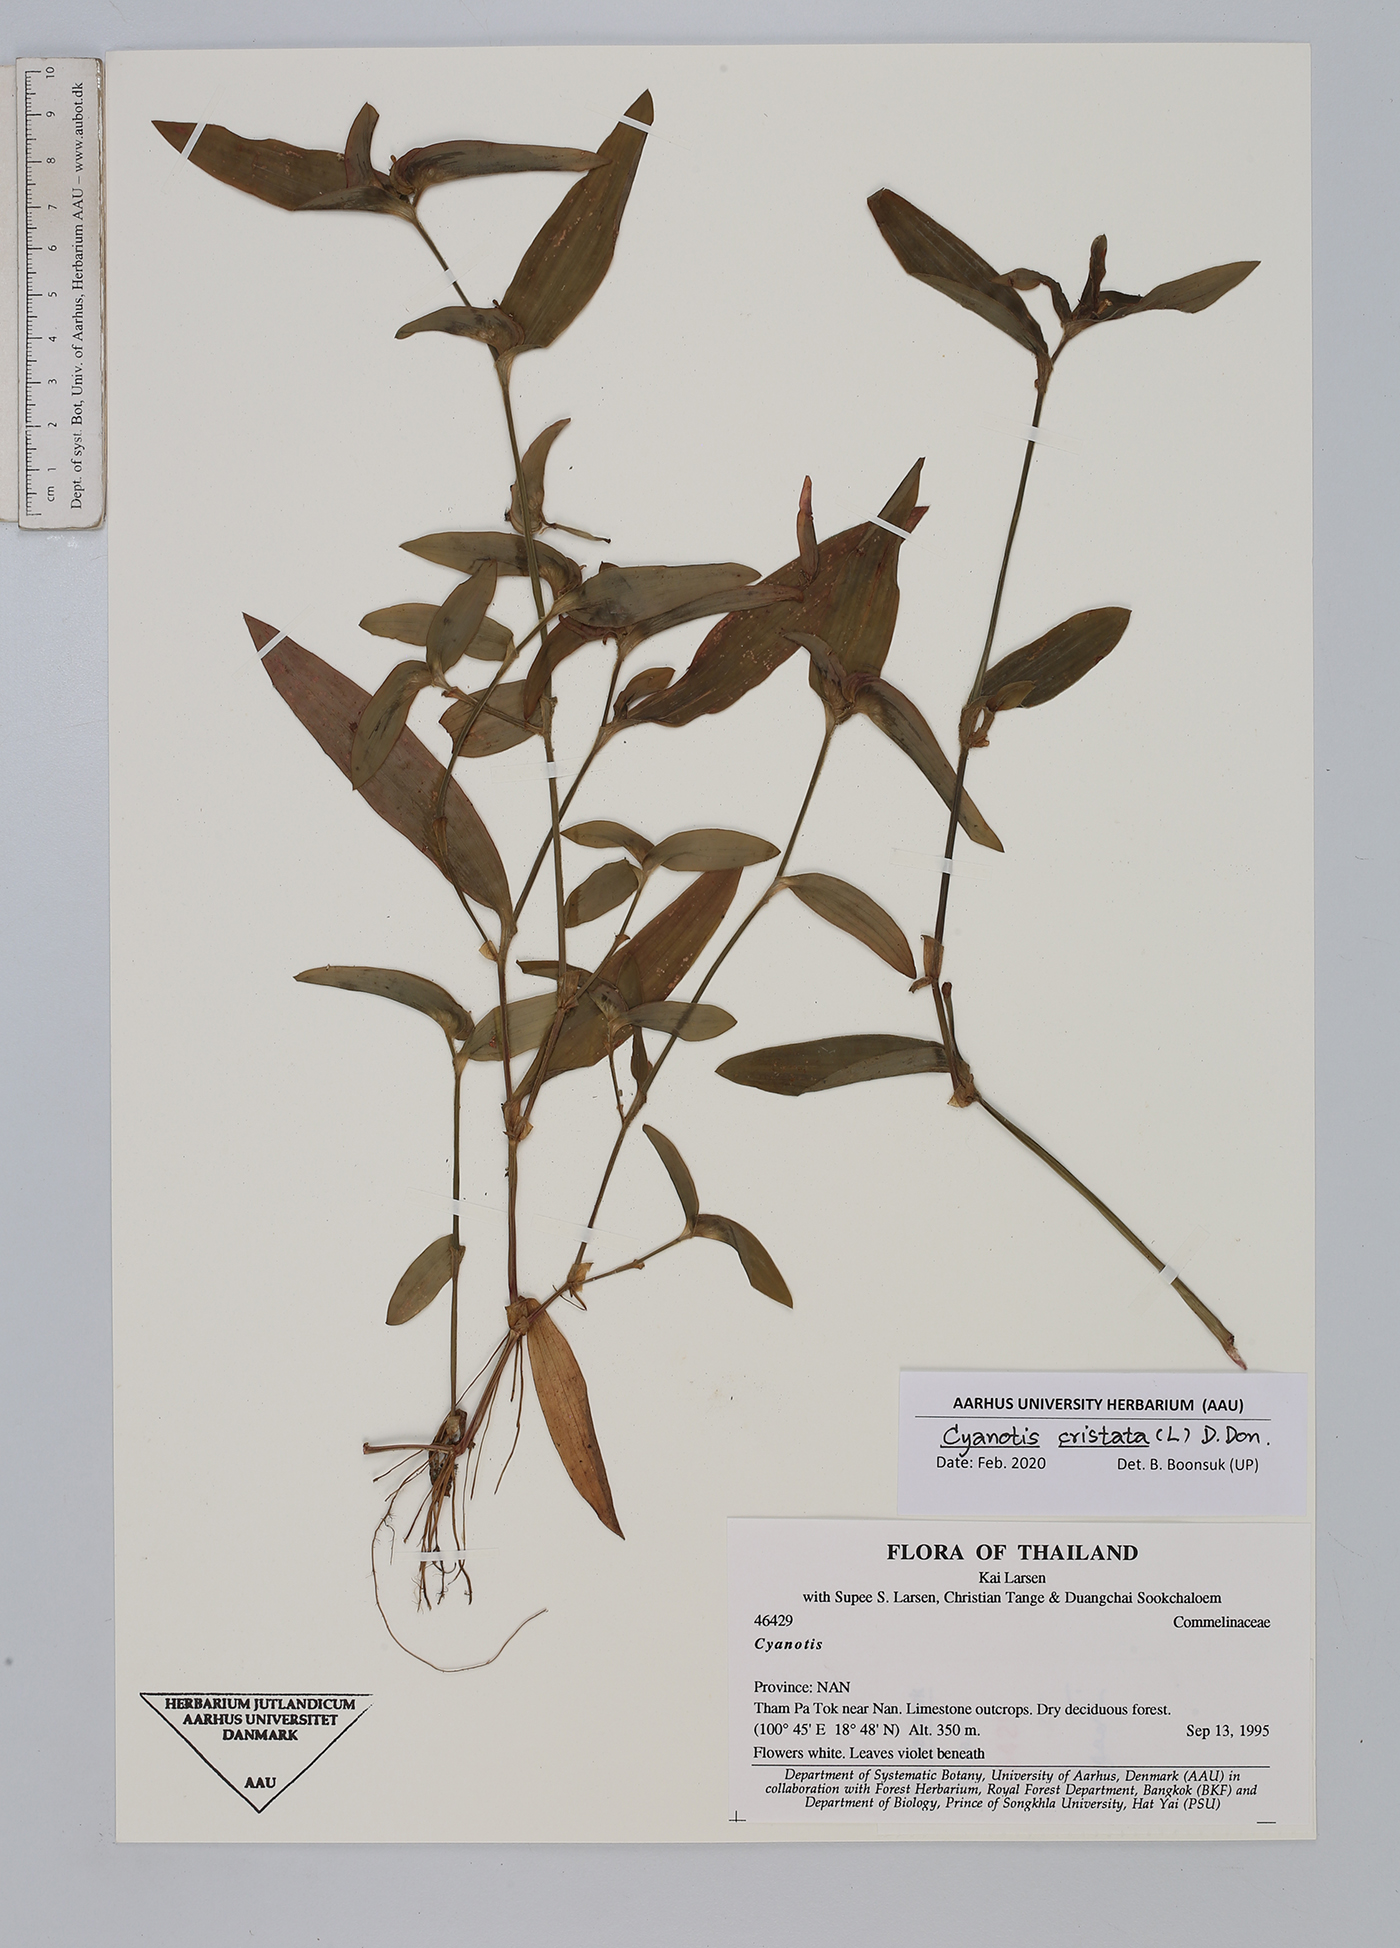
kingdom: Plantae
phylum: Tracheophyta
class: Liliopsida
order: Commelinales
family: Commelinaceae
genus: Cyanotis
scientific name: Cyanotis cristata
